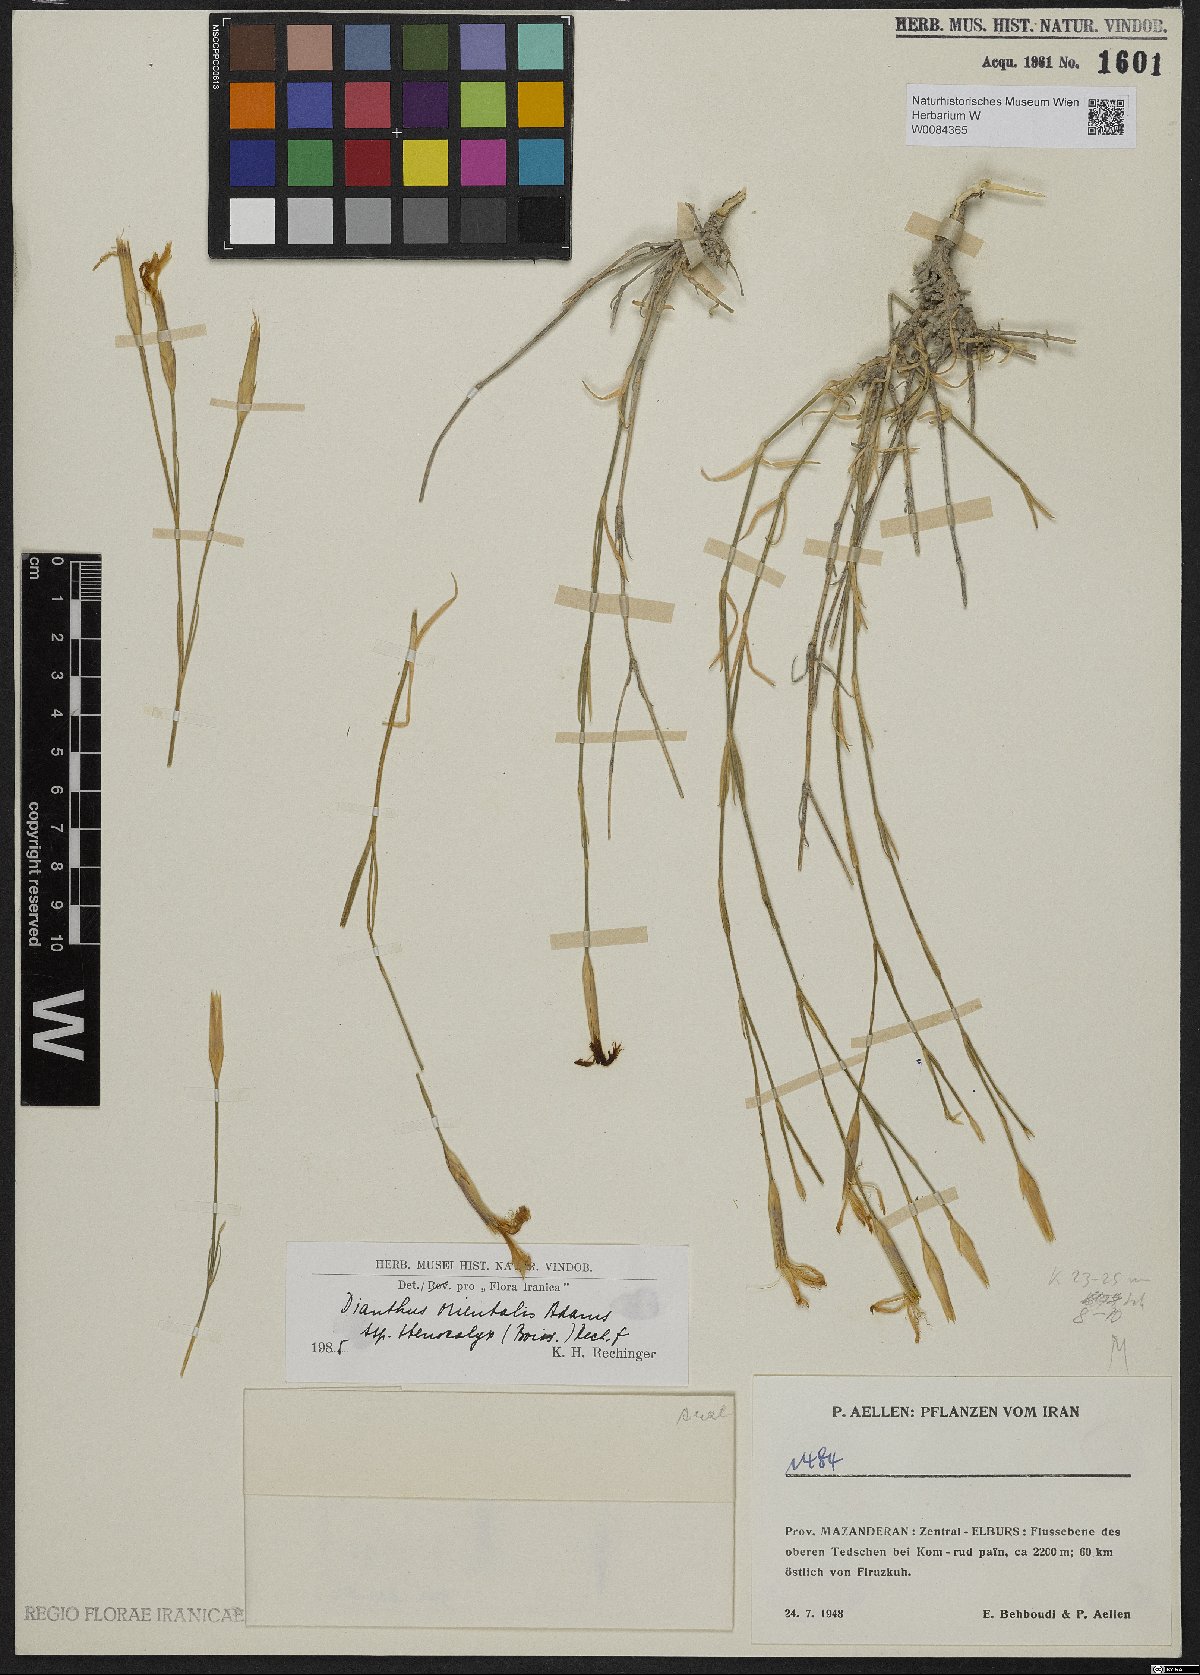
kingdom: Plantae
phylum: Tracheophyta
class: Magnoliopsida
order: Caryophyllales
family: Caryophyllaceae
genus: Dianthus
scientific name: Dianthus orientalis
